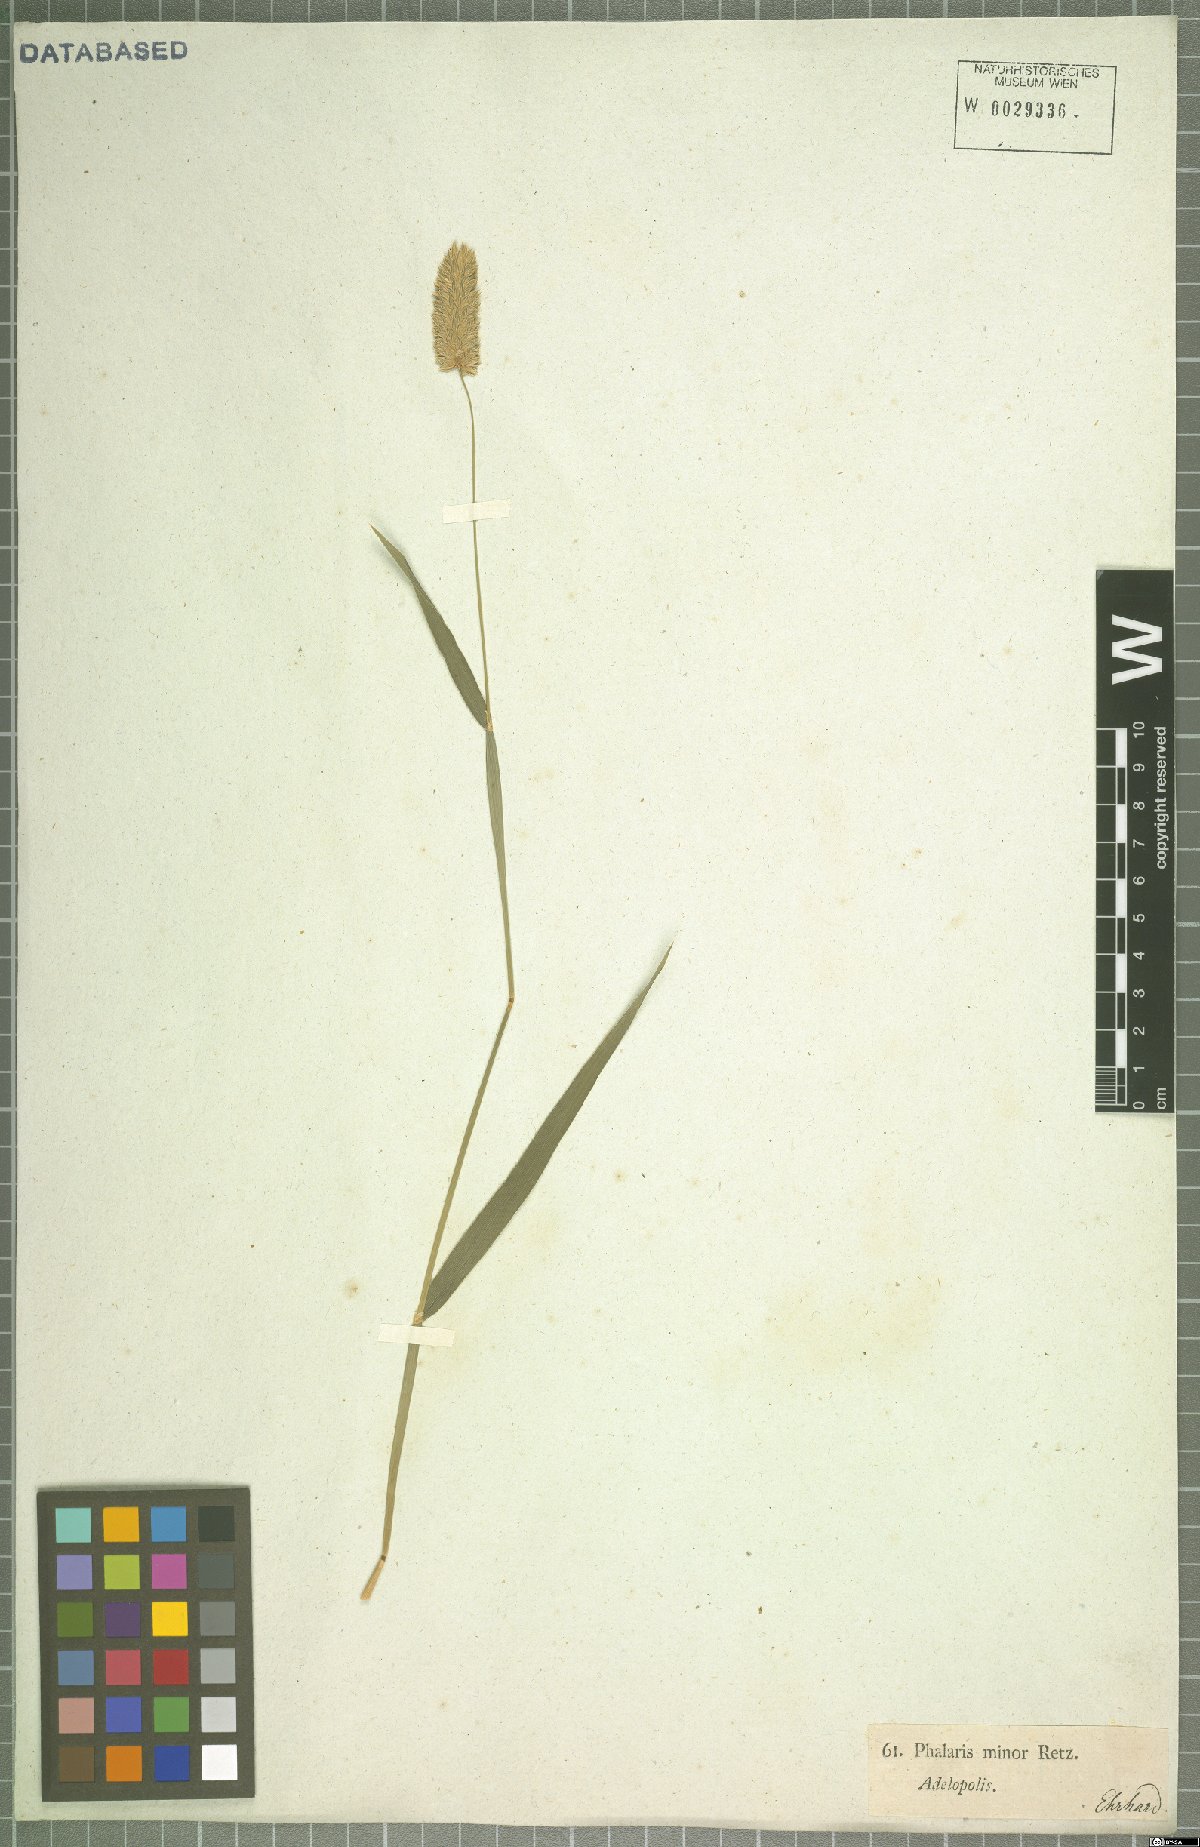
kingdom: Plantae
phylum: Tracheophyta
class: Liliopsida
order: Poales
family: Poaceae
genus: Phalaris
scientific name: Phalaris minor
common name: Littleseed canarygrass
